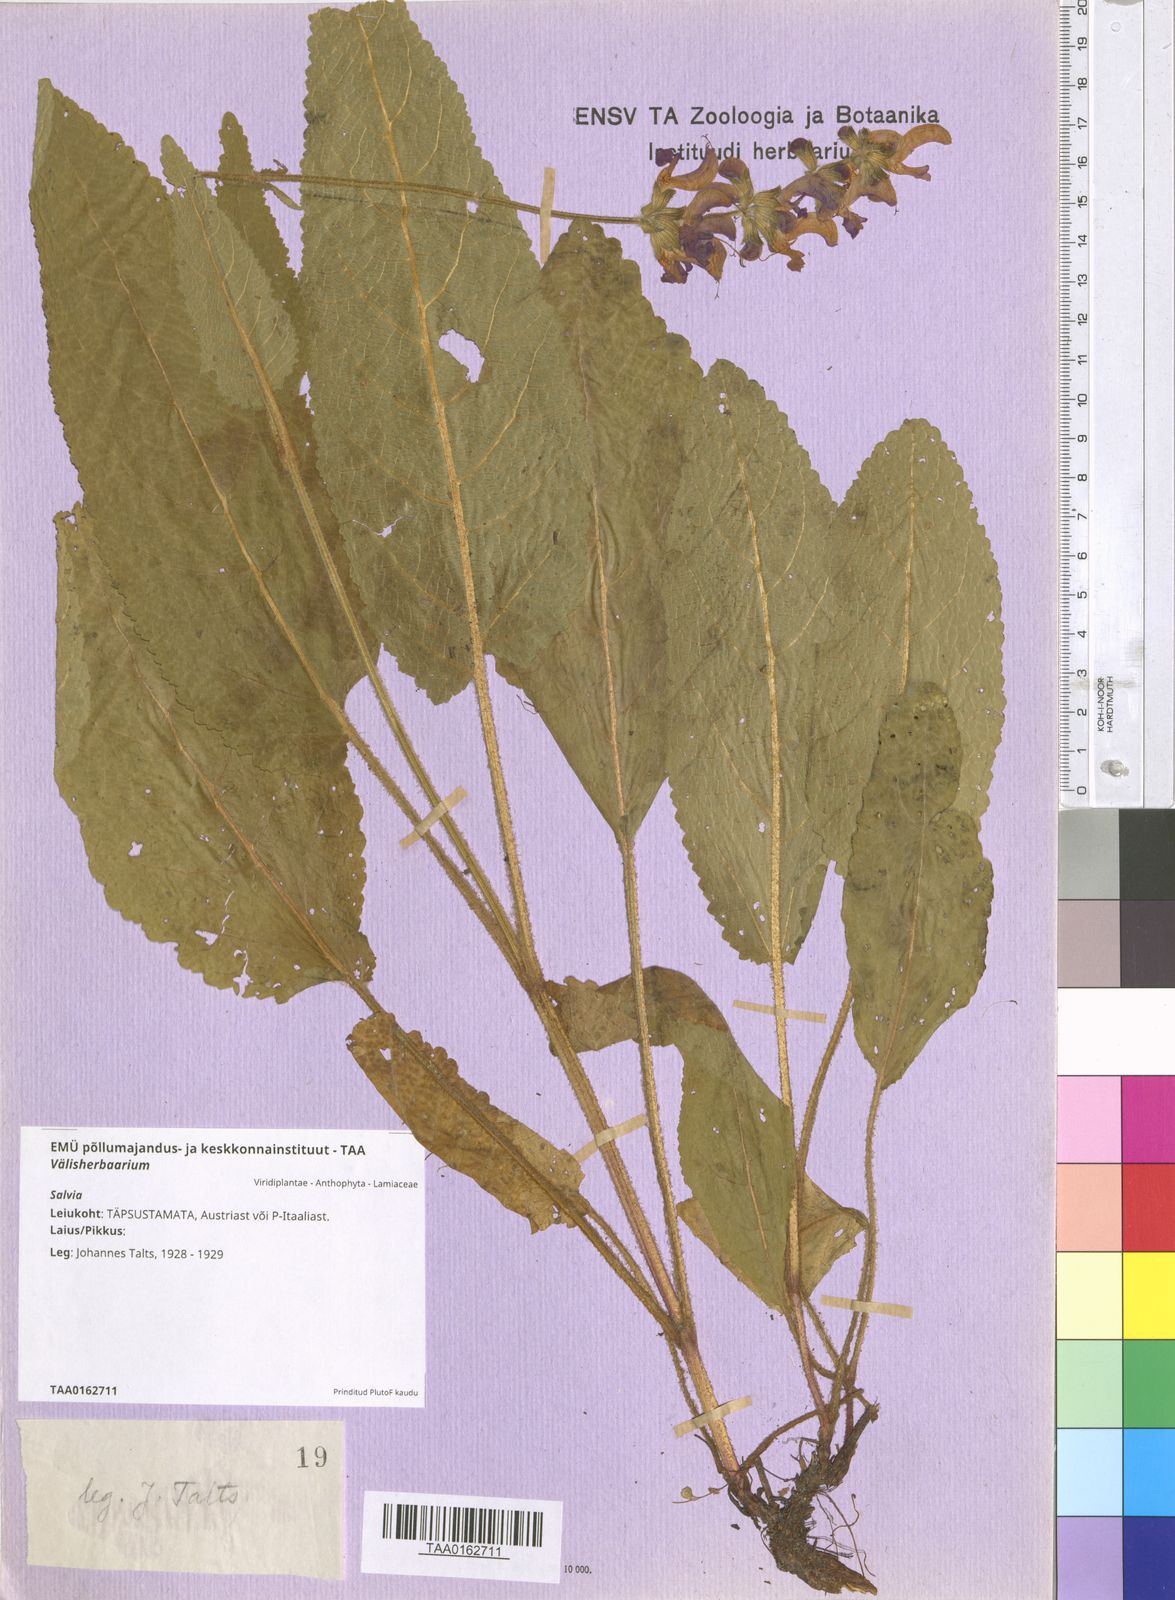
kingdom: Plantae
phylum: Tracheophyta
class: Magnoliopsida
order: Lamiales
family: Lamiaceae
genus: Salvia
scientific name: Salvia
